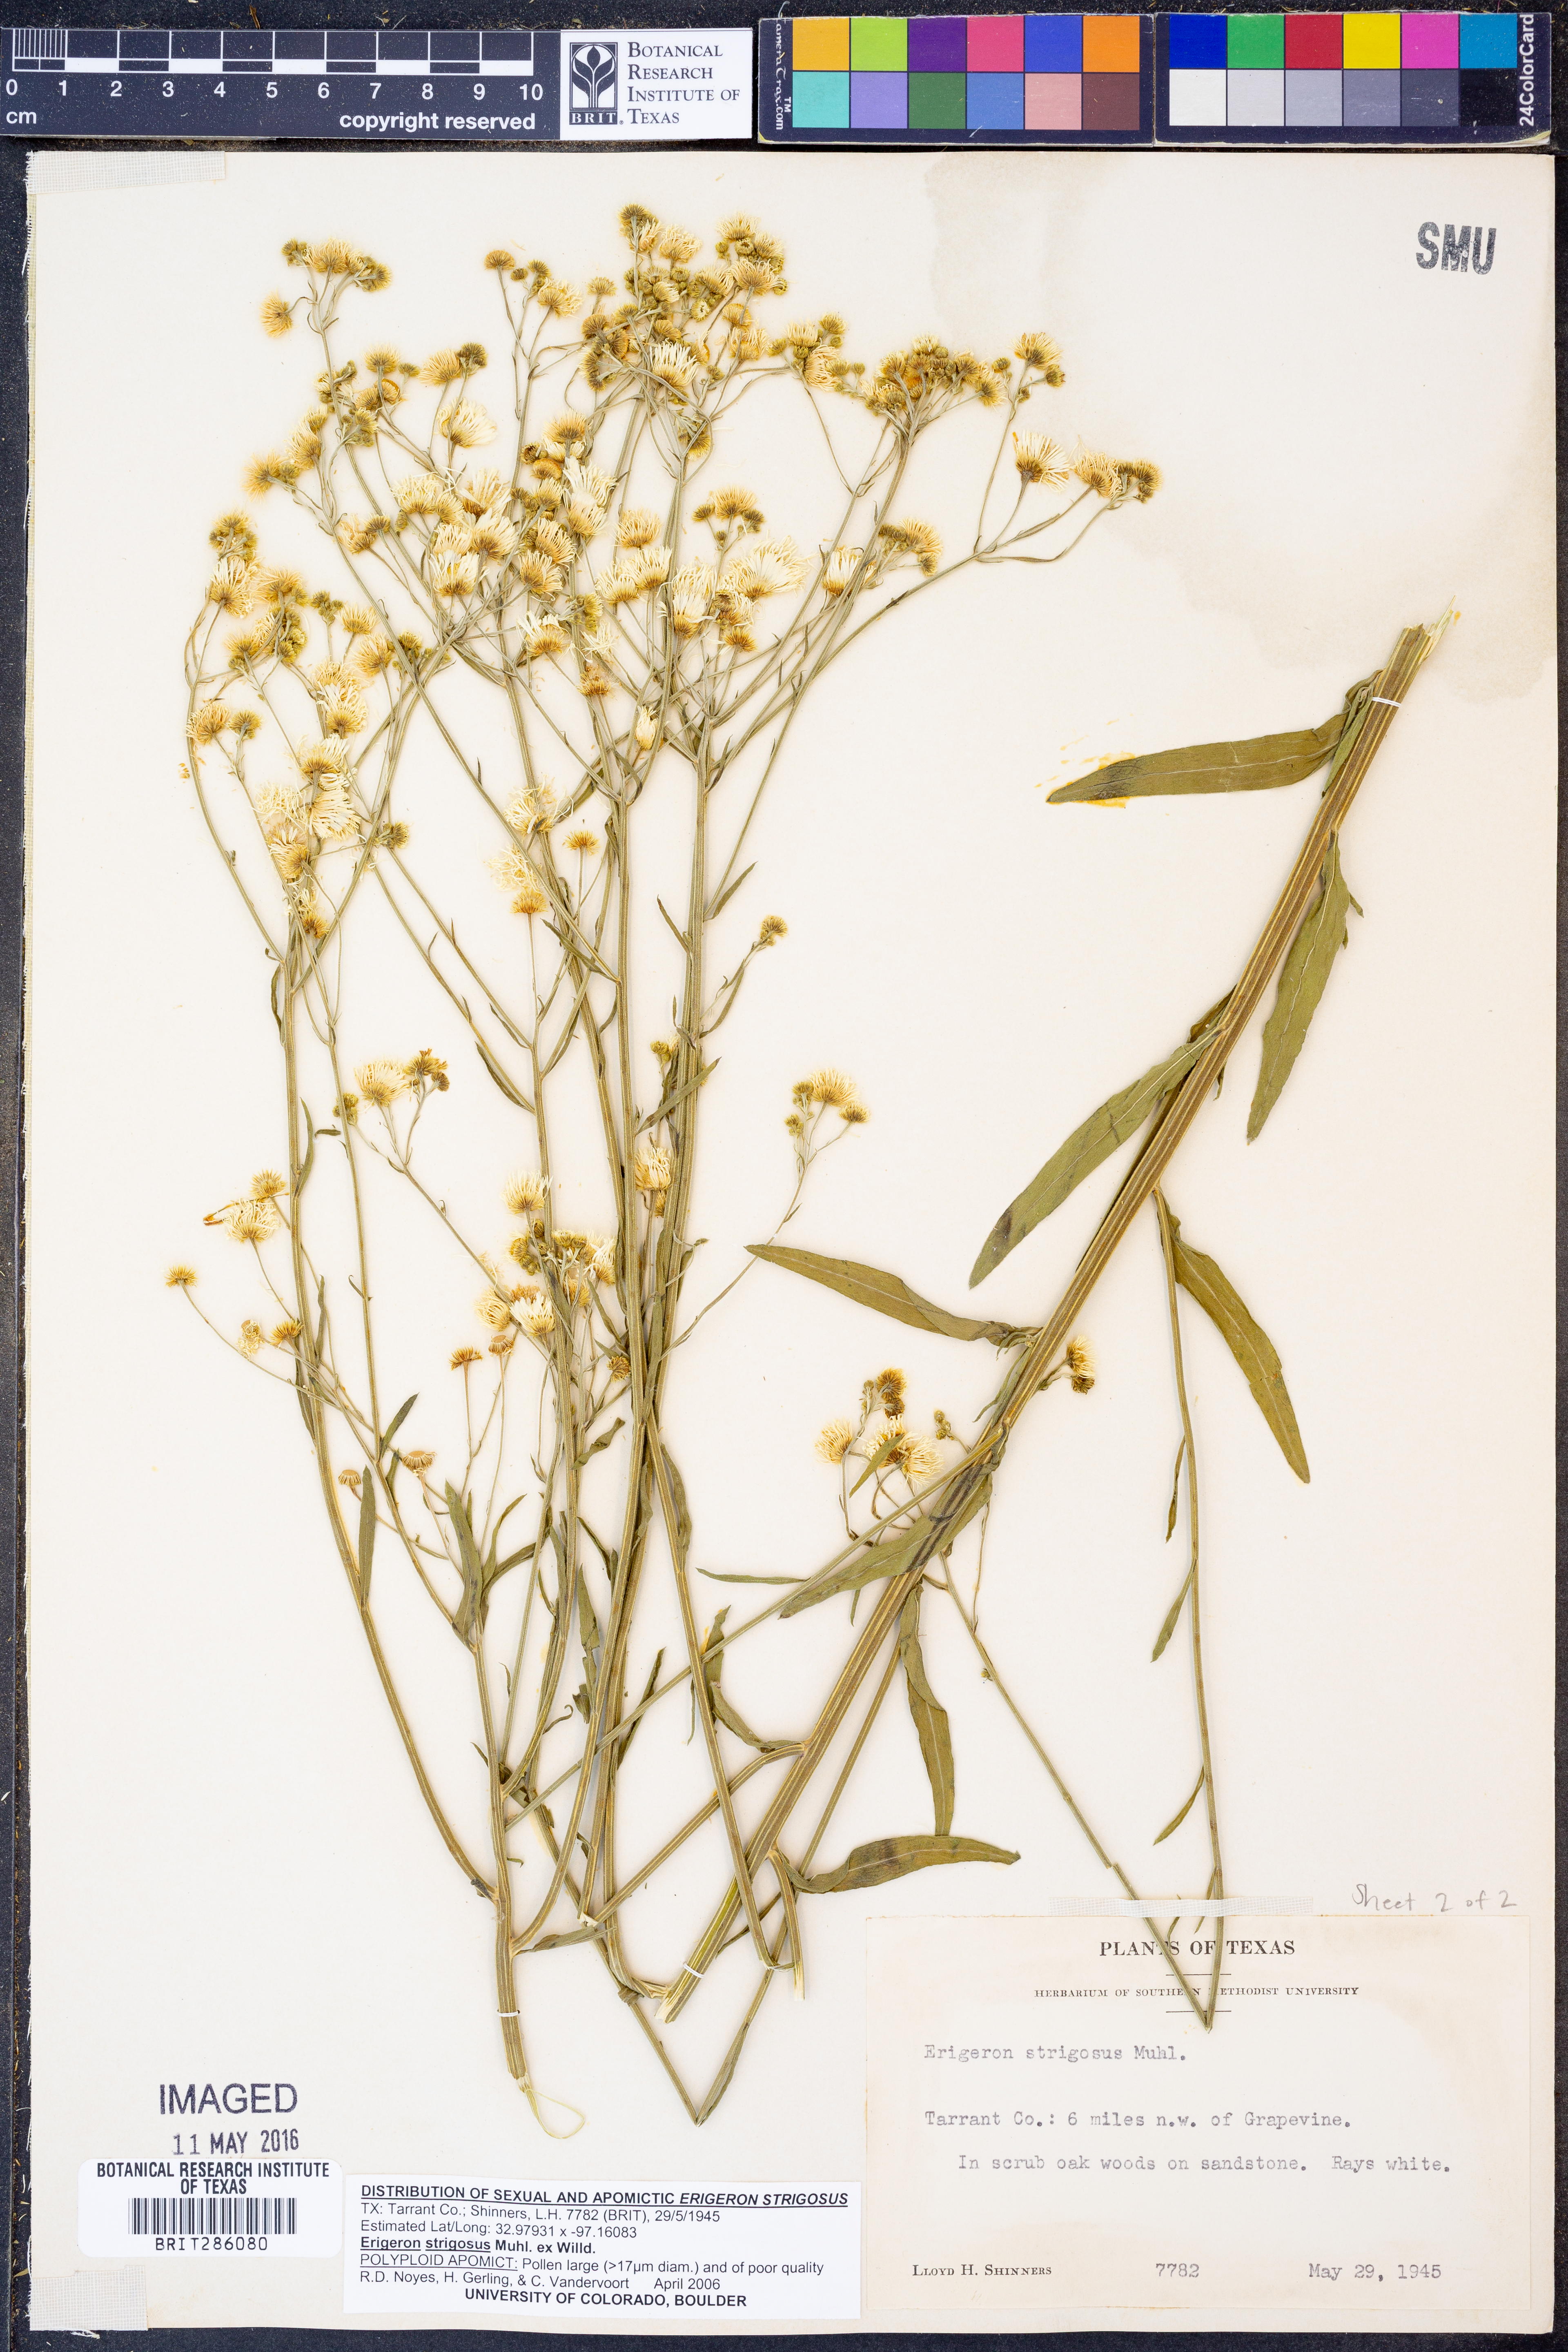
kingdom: Plantae
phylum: Tracheophyta
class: Magnoliopsida
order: Asterales
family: Asteraceae
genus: Erigeron
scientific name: Erigeron strigosus
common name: Common eastern fleabane
